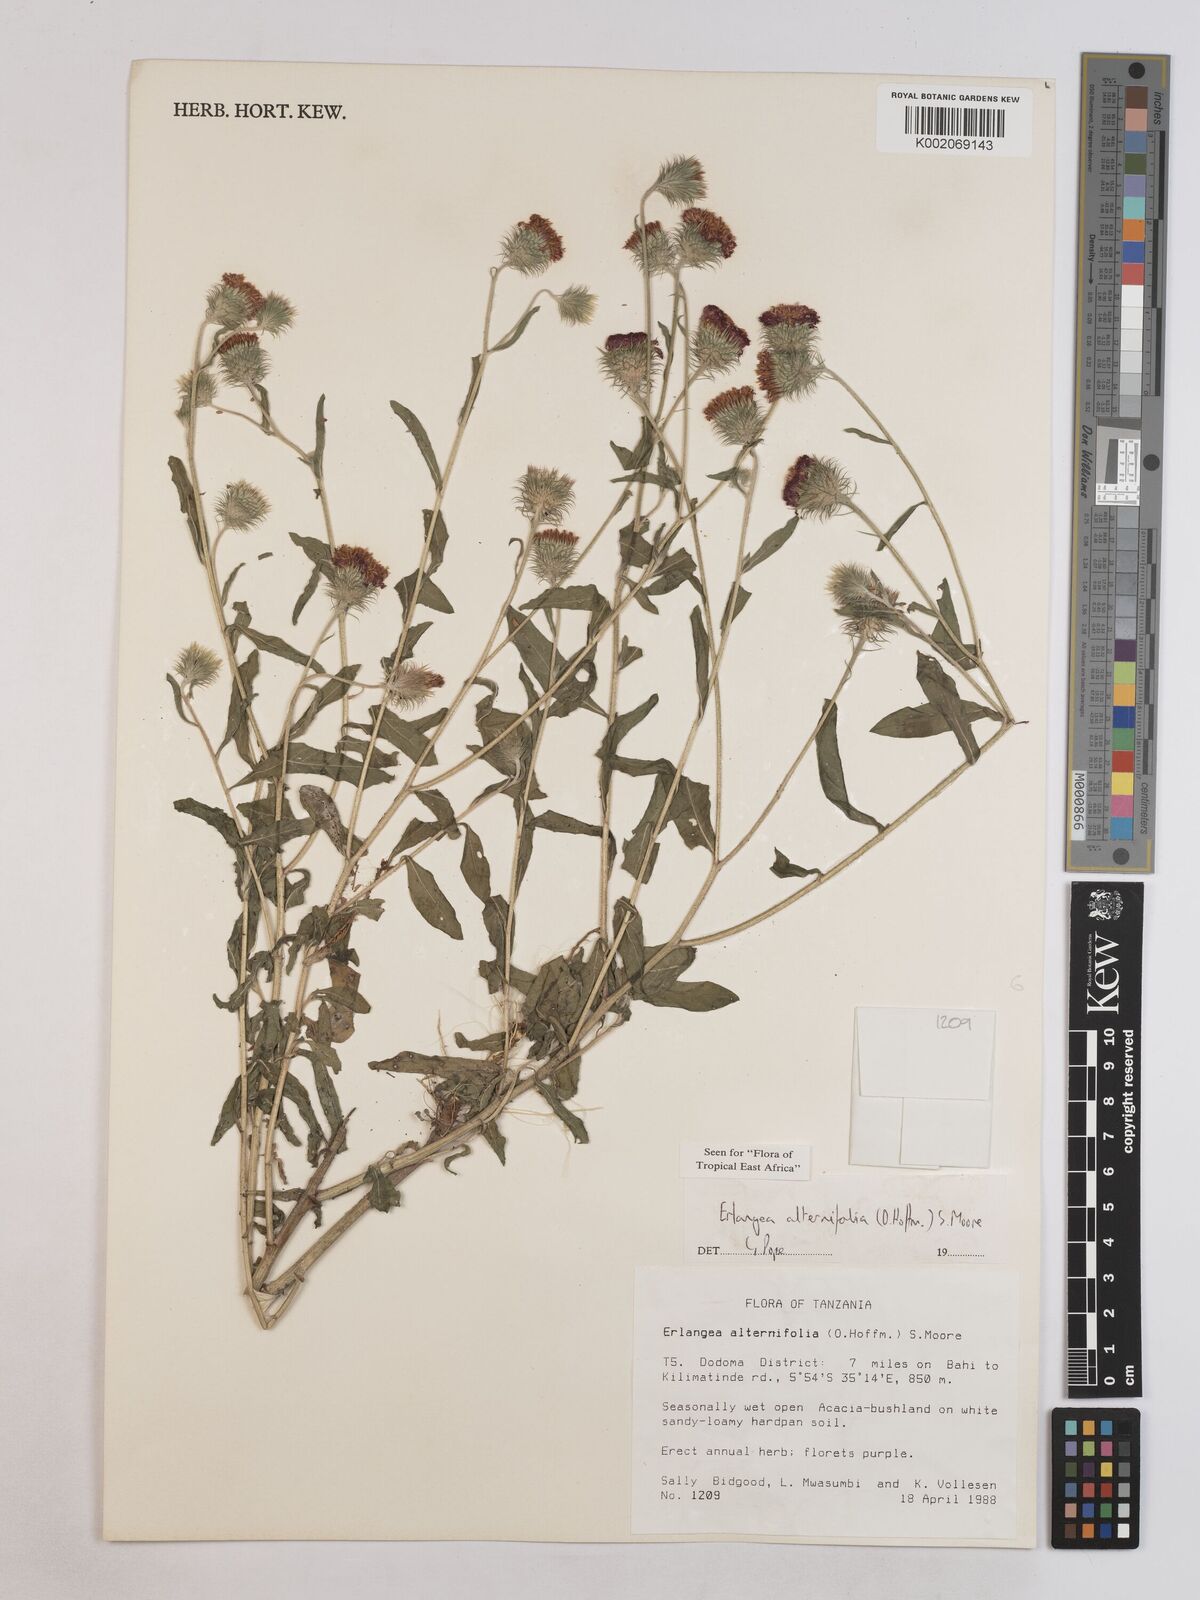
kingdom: Plantae
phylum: Tracheophyta
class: Magnoliopsida
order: Asterales
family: Asteraceae
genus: Erlangea
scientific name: Erlangea alternifolia
